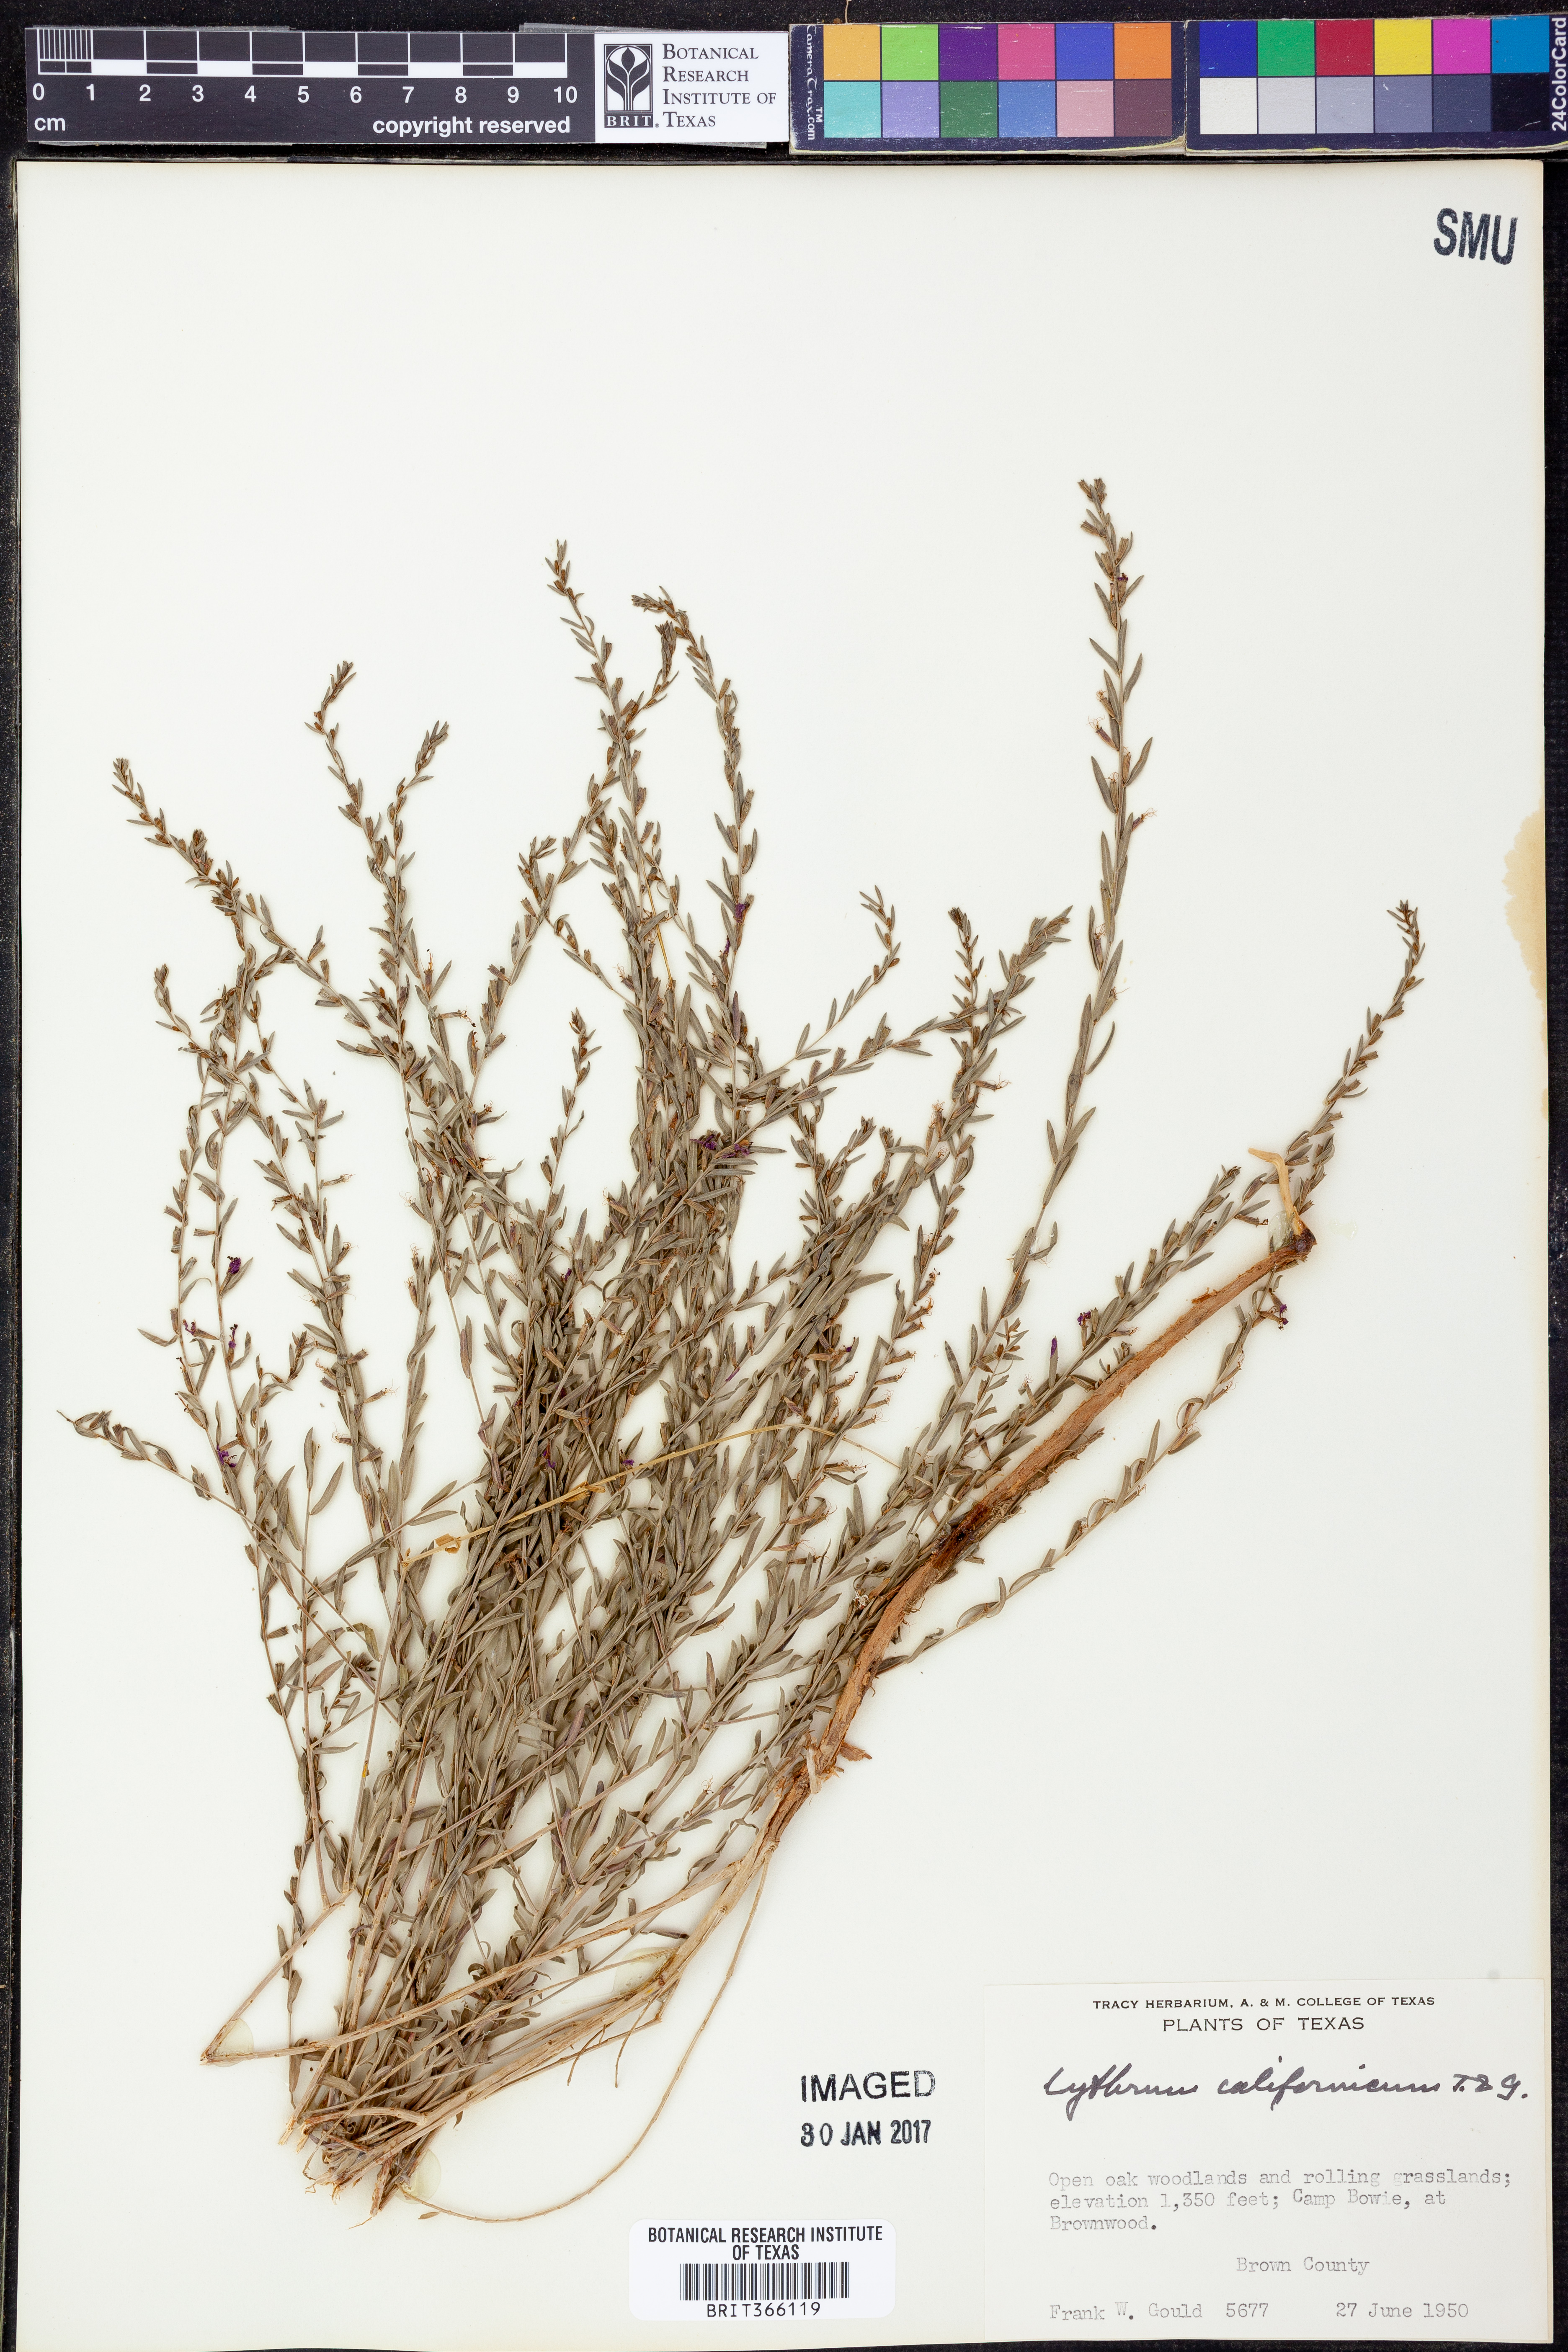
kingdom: Plantae
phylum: Tracheophyta
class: Magnoliopsida
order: Myrtales
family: Lythraceae
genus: Lythrum
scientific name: Lythrum californicum
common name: California loosestrife
